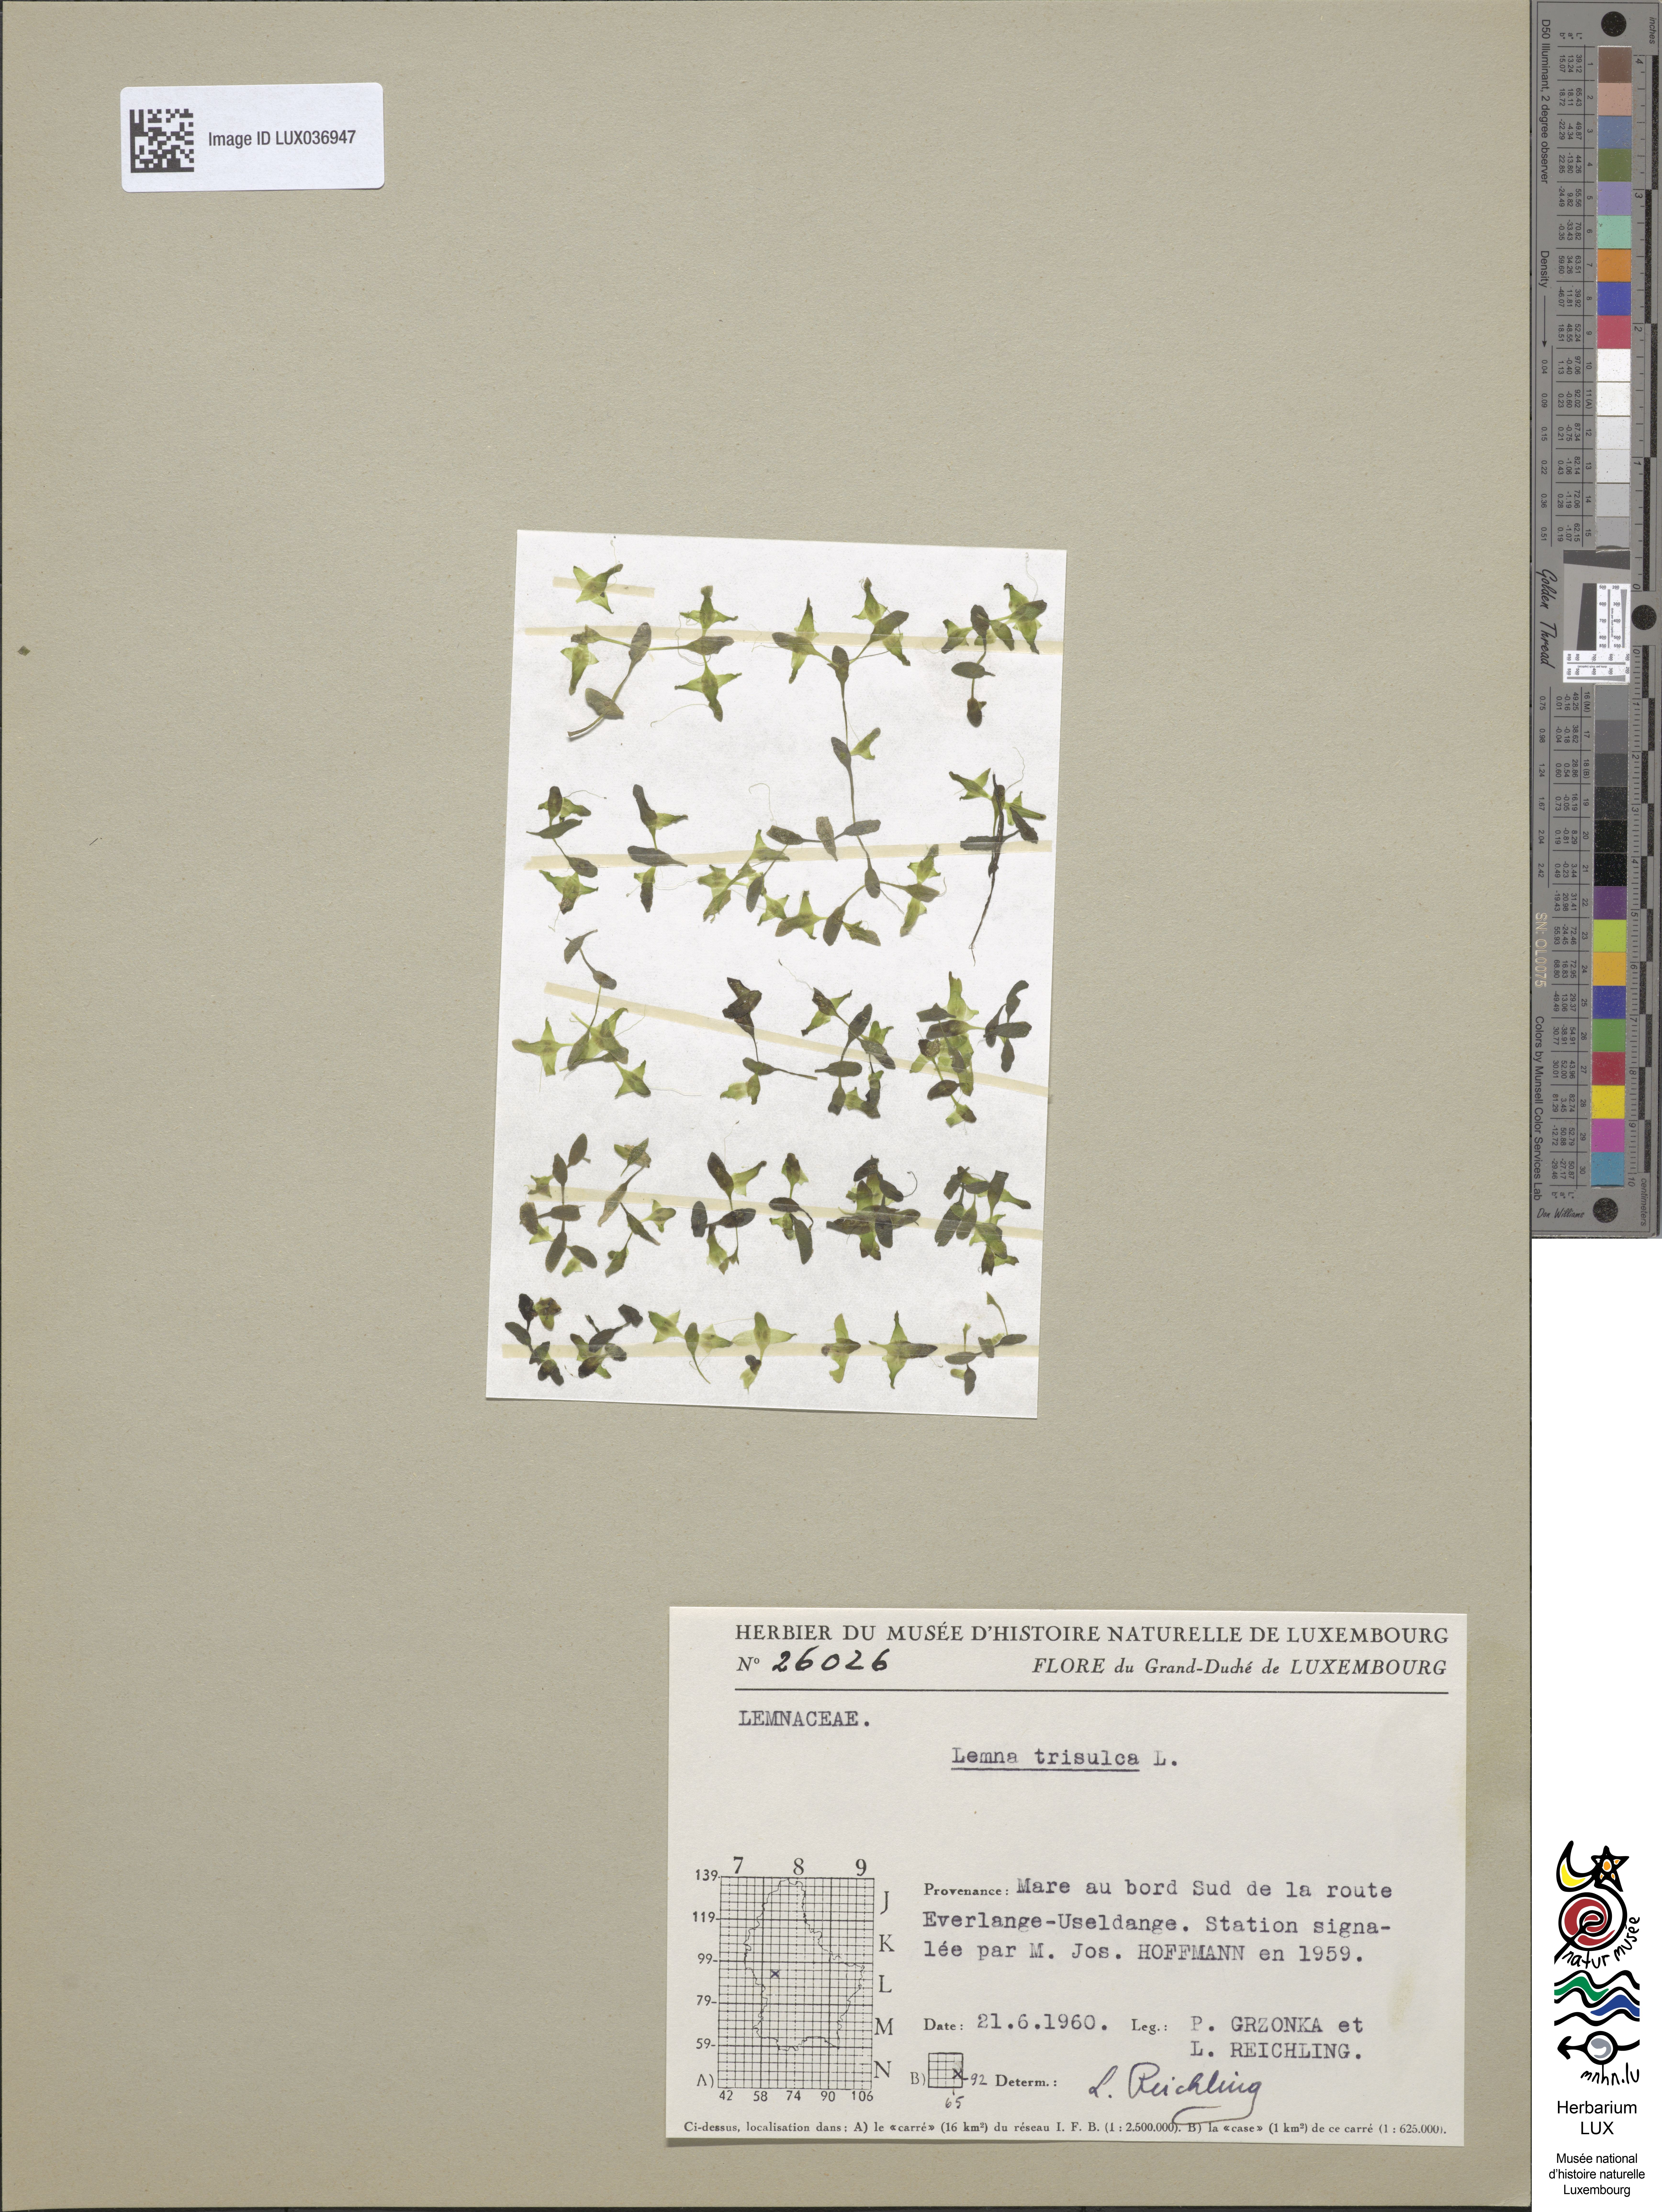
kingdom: Plantae
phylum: Tracheophyta
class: Liliopsida
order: Alismatales
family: Araceae
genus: Lemna
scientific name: Lemna trisulca
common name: Ivy-leaved duckweed
